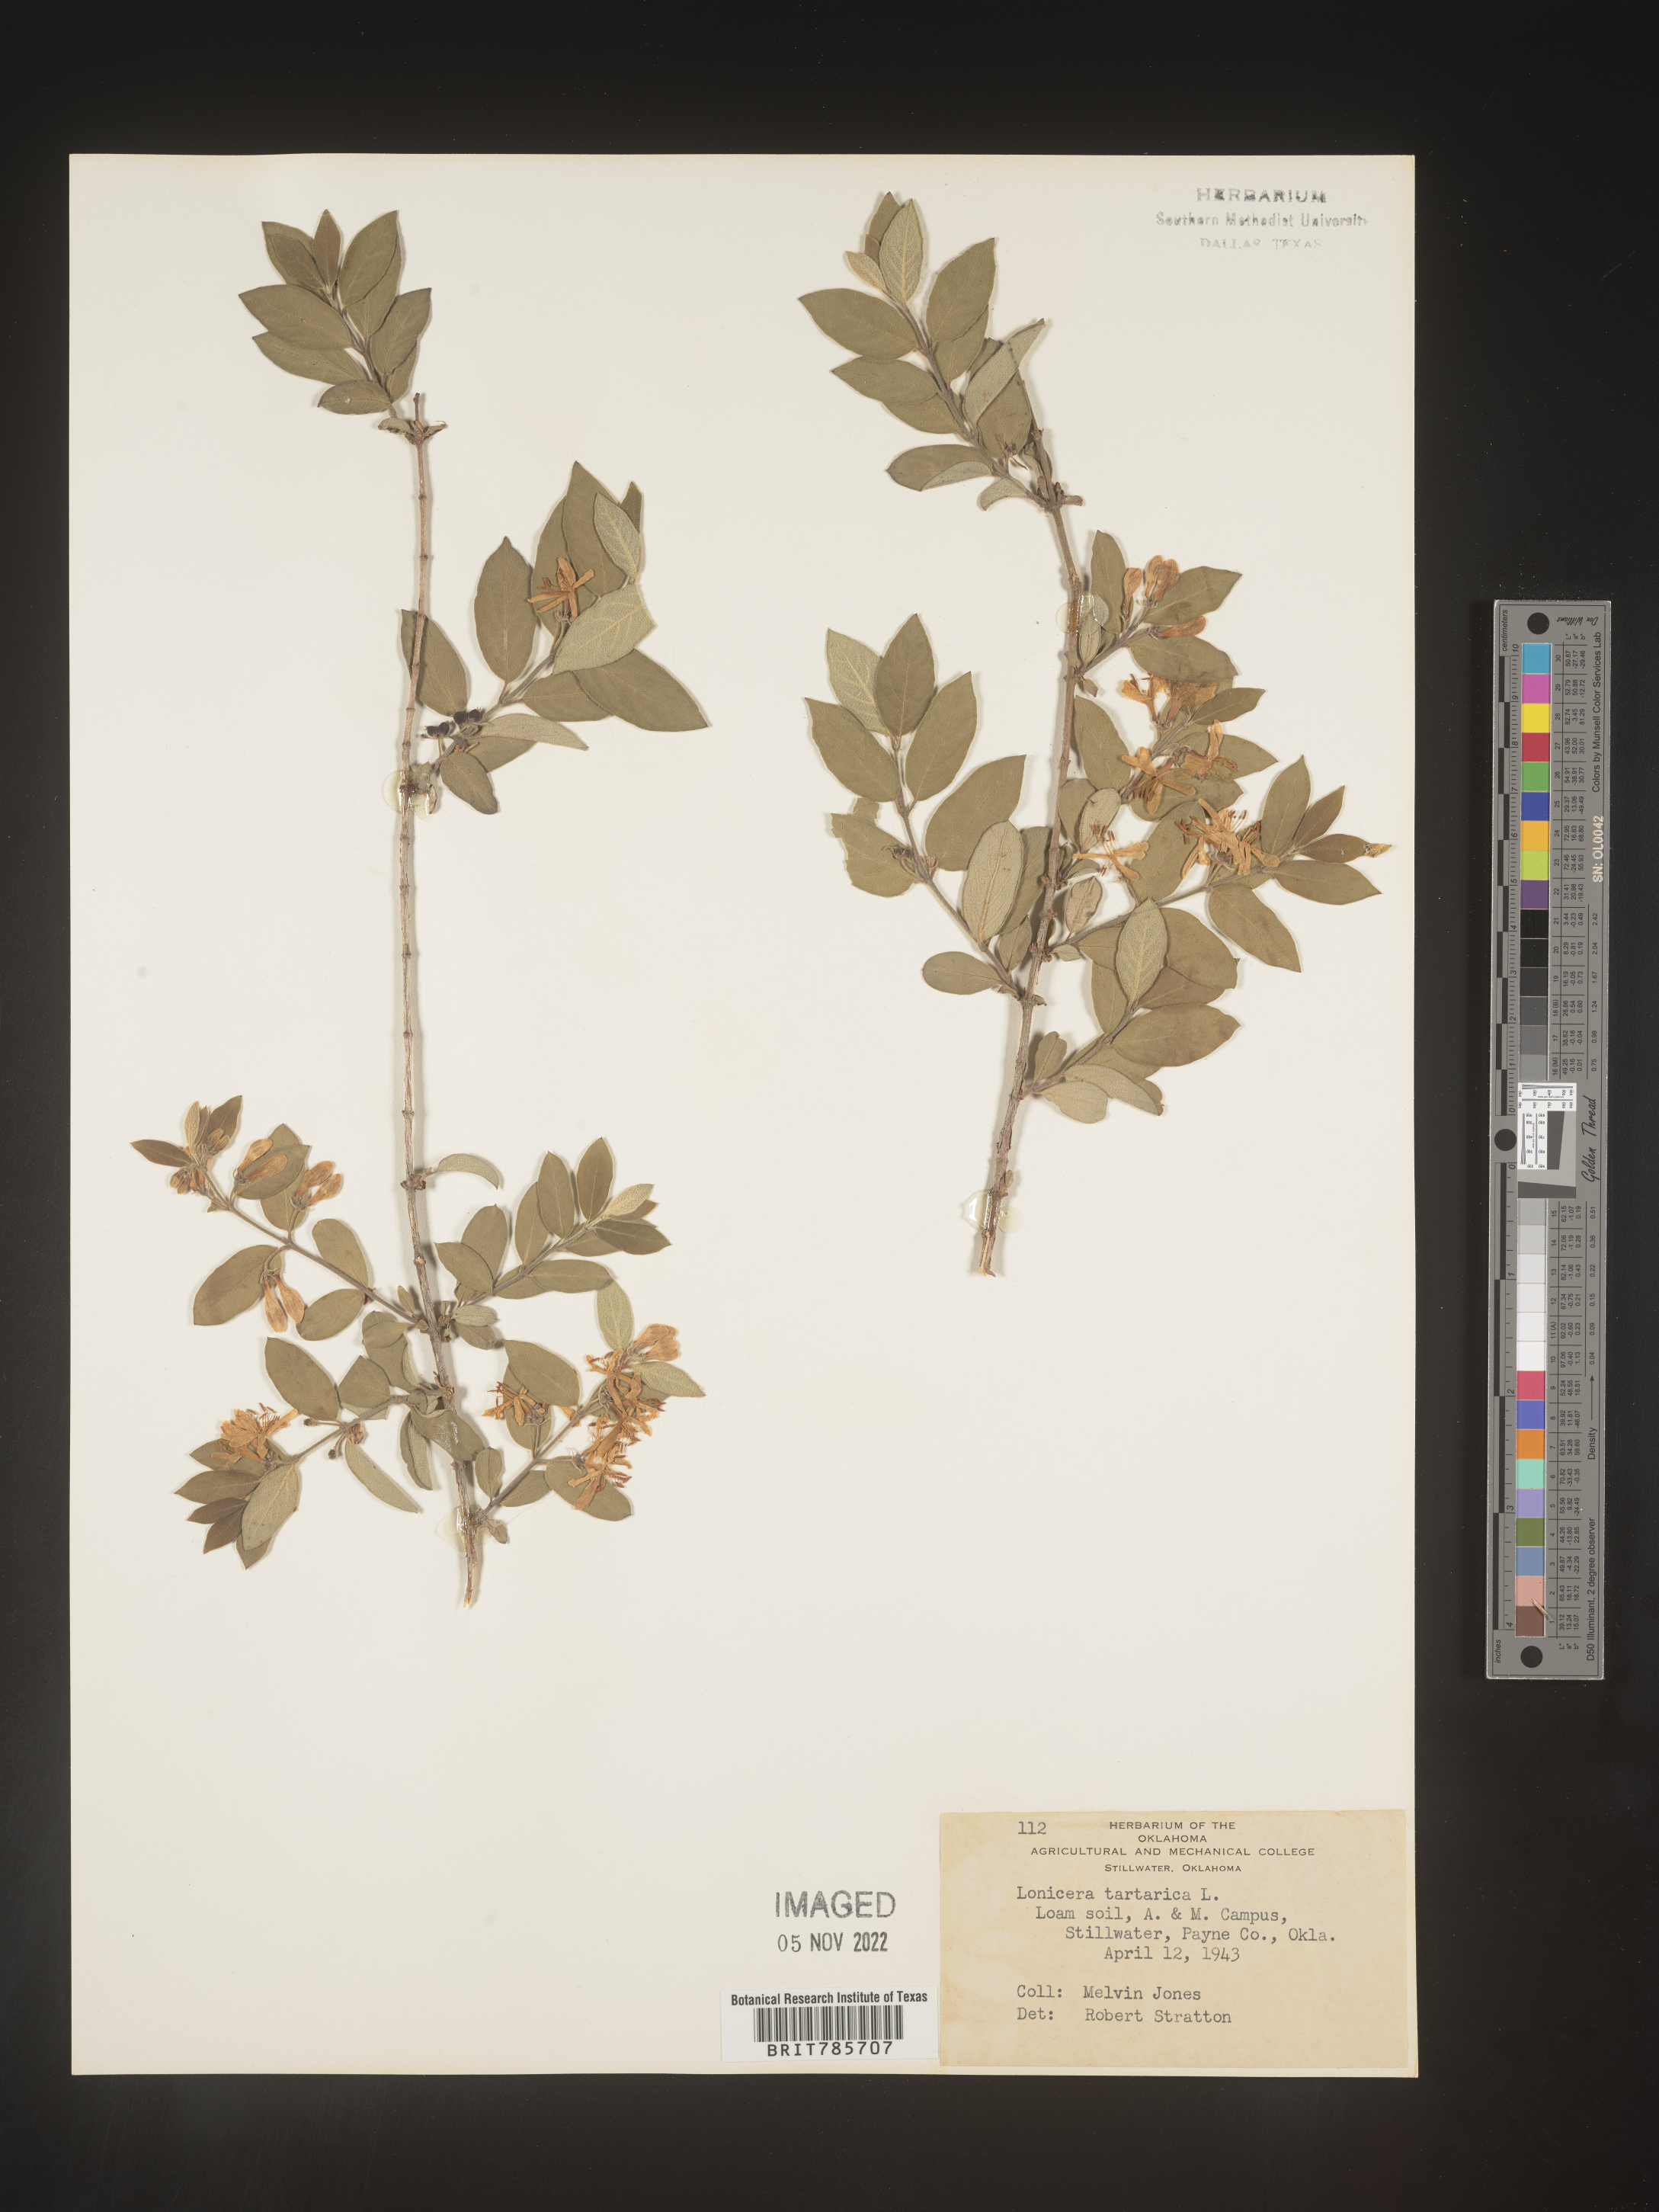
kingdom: Plantae
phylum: Tracheophyta
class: Magnoliopsida
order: Dipsacales
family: Caprifoliaceae
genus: Lonicera
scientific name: Lonicera
